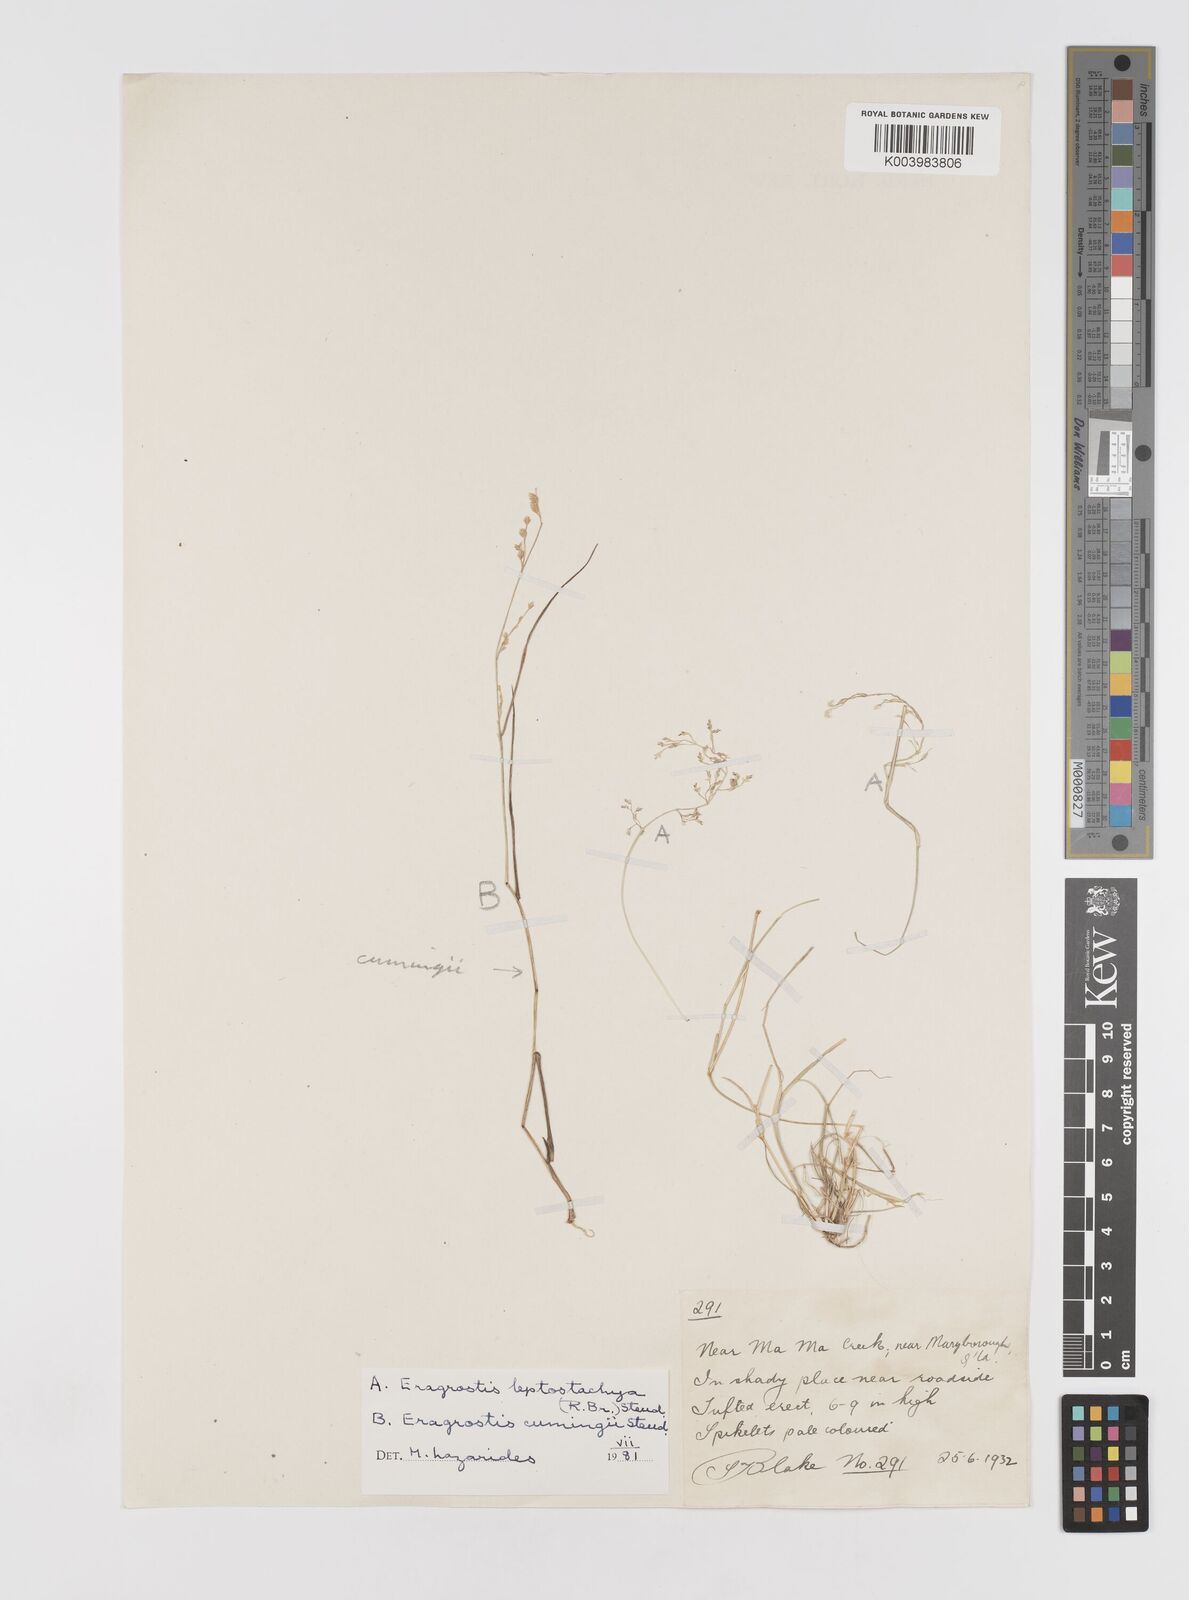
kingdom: Plantae
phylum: Tracheophyta
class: Liliopsida
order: Poales
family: Poaceae
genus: Eragrostis
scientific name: Eragrostis cumingii
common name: Cuming's lovegrass
